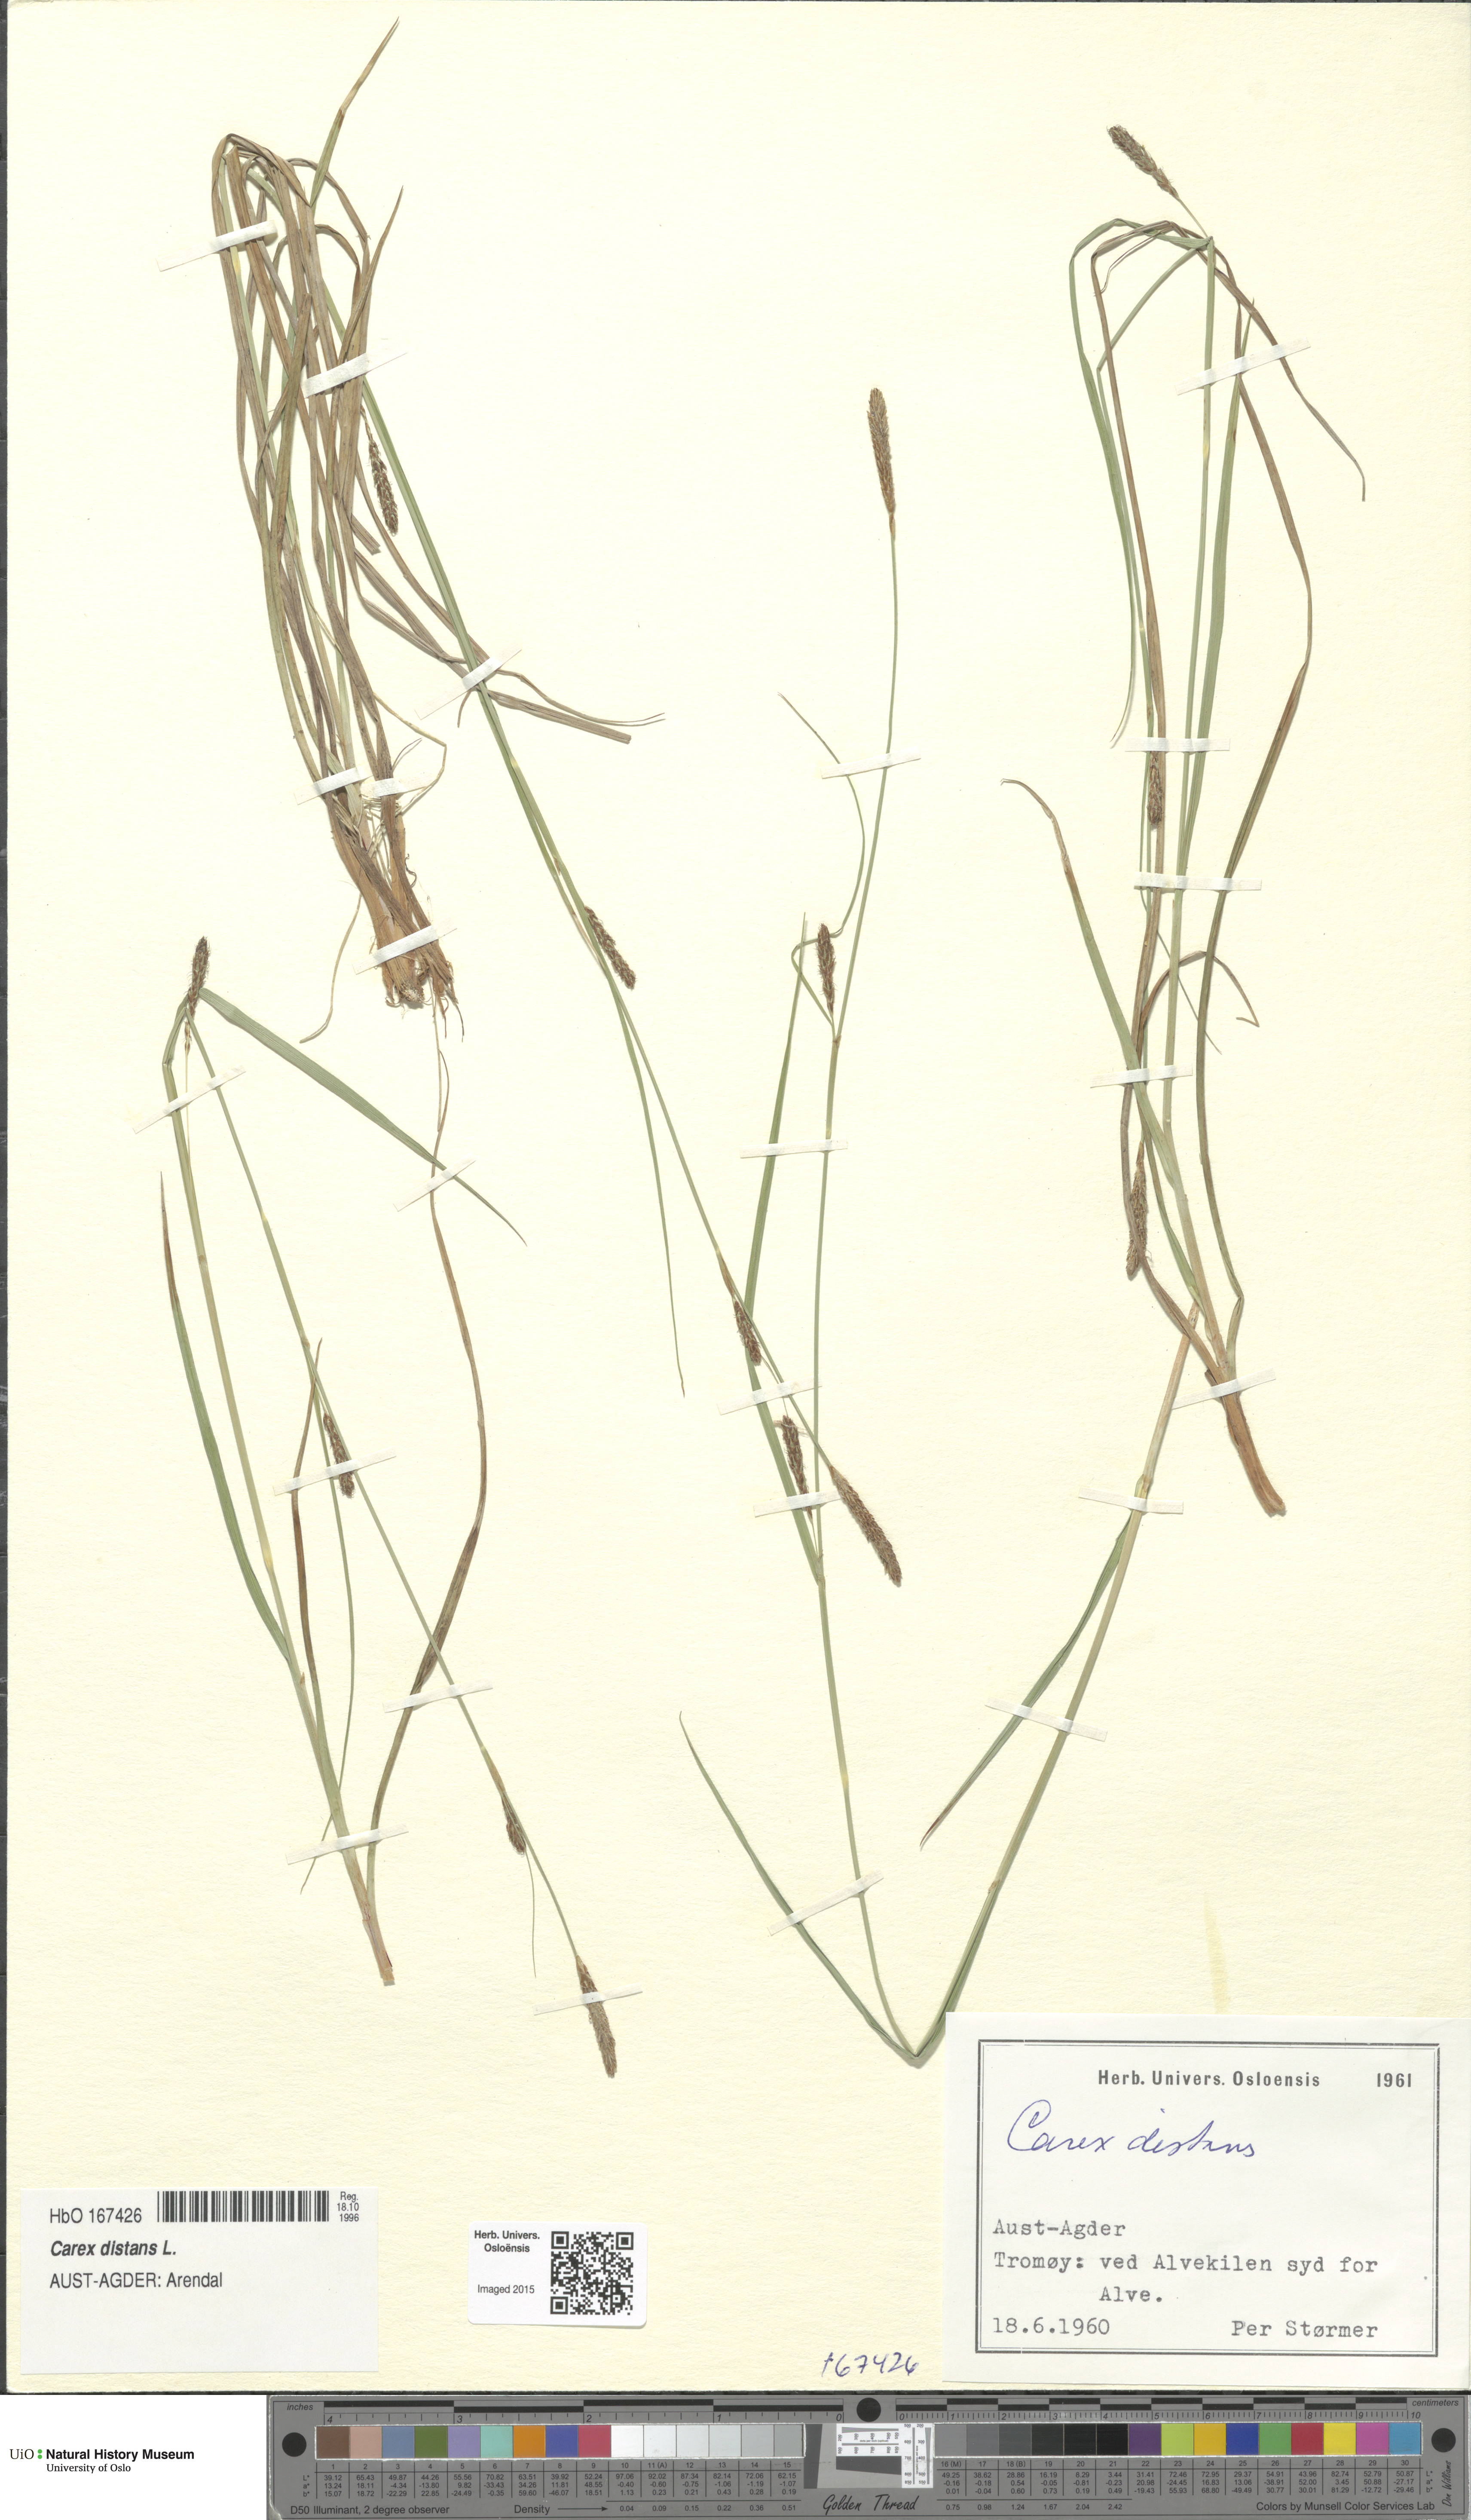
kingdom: Plantae
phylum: Tracheophyta
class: Liliopsida
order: Poales
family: Cyperaceae
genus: Carex
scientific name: Carex distans
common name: Distant sedge
